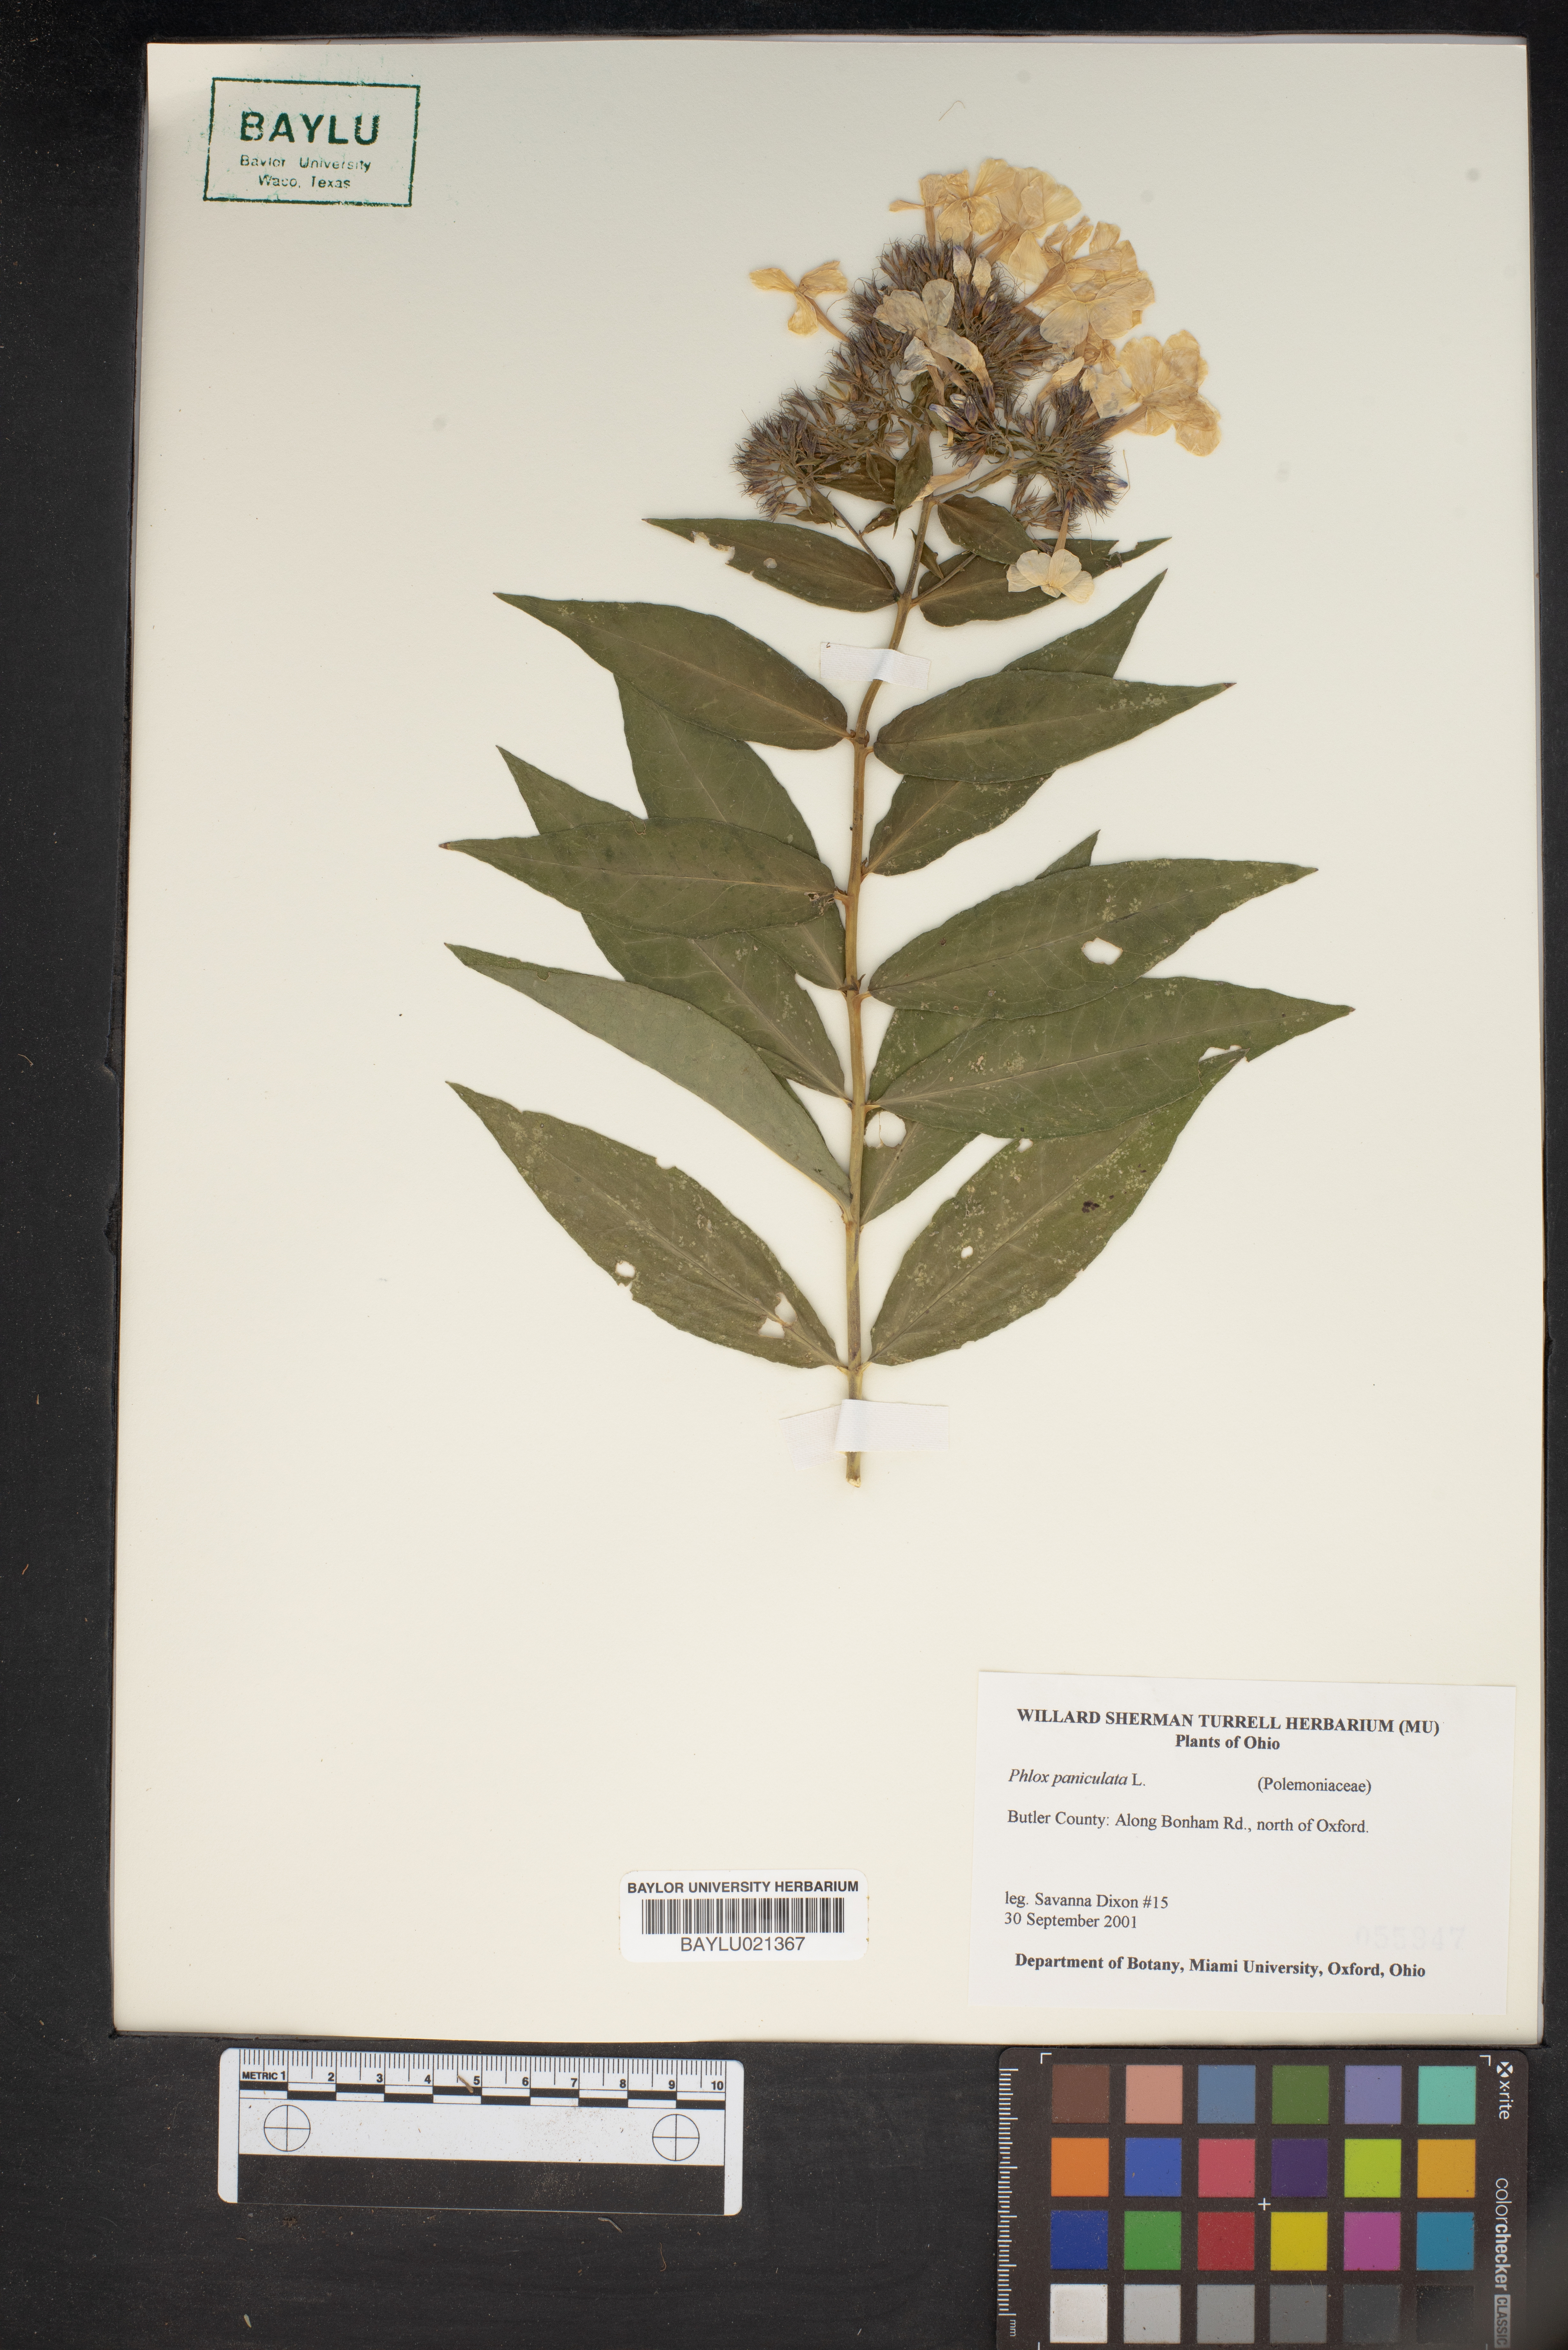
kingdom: Plantae
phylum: Tracheophyta
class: Magnoliopsida
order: Ericales
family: Polemoniaceae
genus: Phlox
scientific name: Phlox paniculata
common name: Fall phlox
